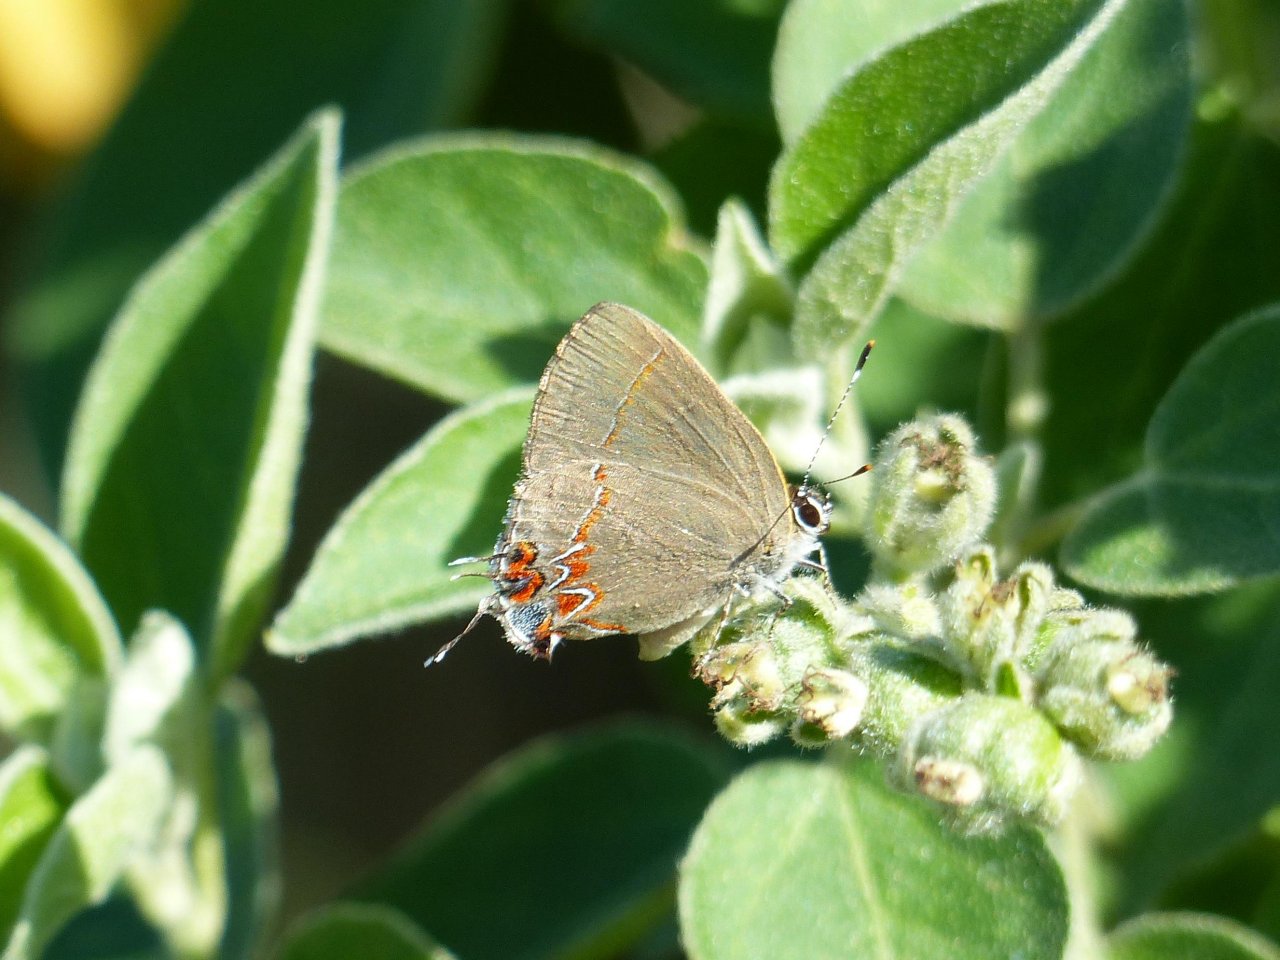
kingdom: Animalia
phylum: Arthropoda
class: Insecta
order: Lepidoptera
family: Lycaenidae
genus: Calycopis
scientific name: Calycopis isobeon
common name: Dusky-blue Groundstreak
